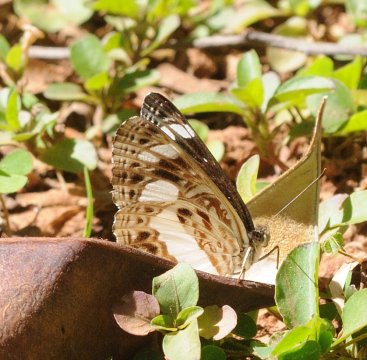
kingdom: Animalia
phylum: Arthropoda
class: Insecta
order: Lepidoptera
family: Nymphalidae
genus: Neptis
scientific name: Neptis saclava
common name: Spotted Sailer
